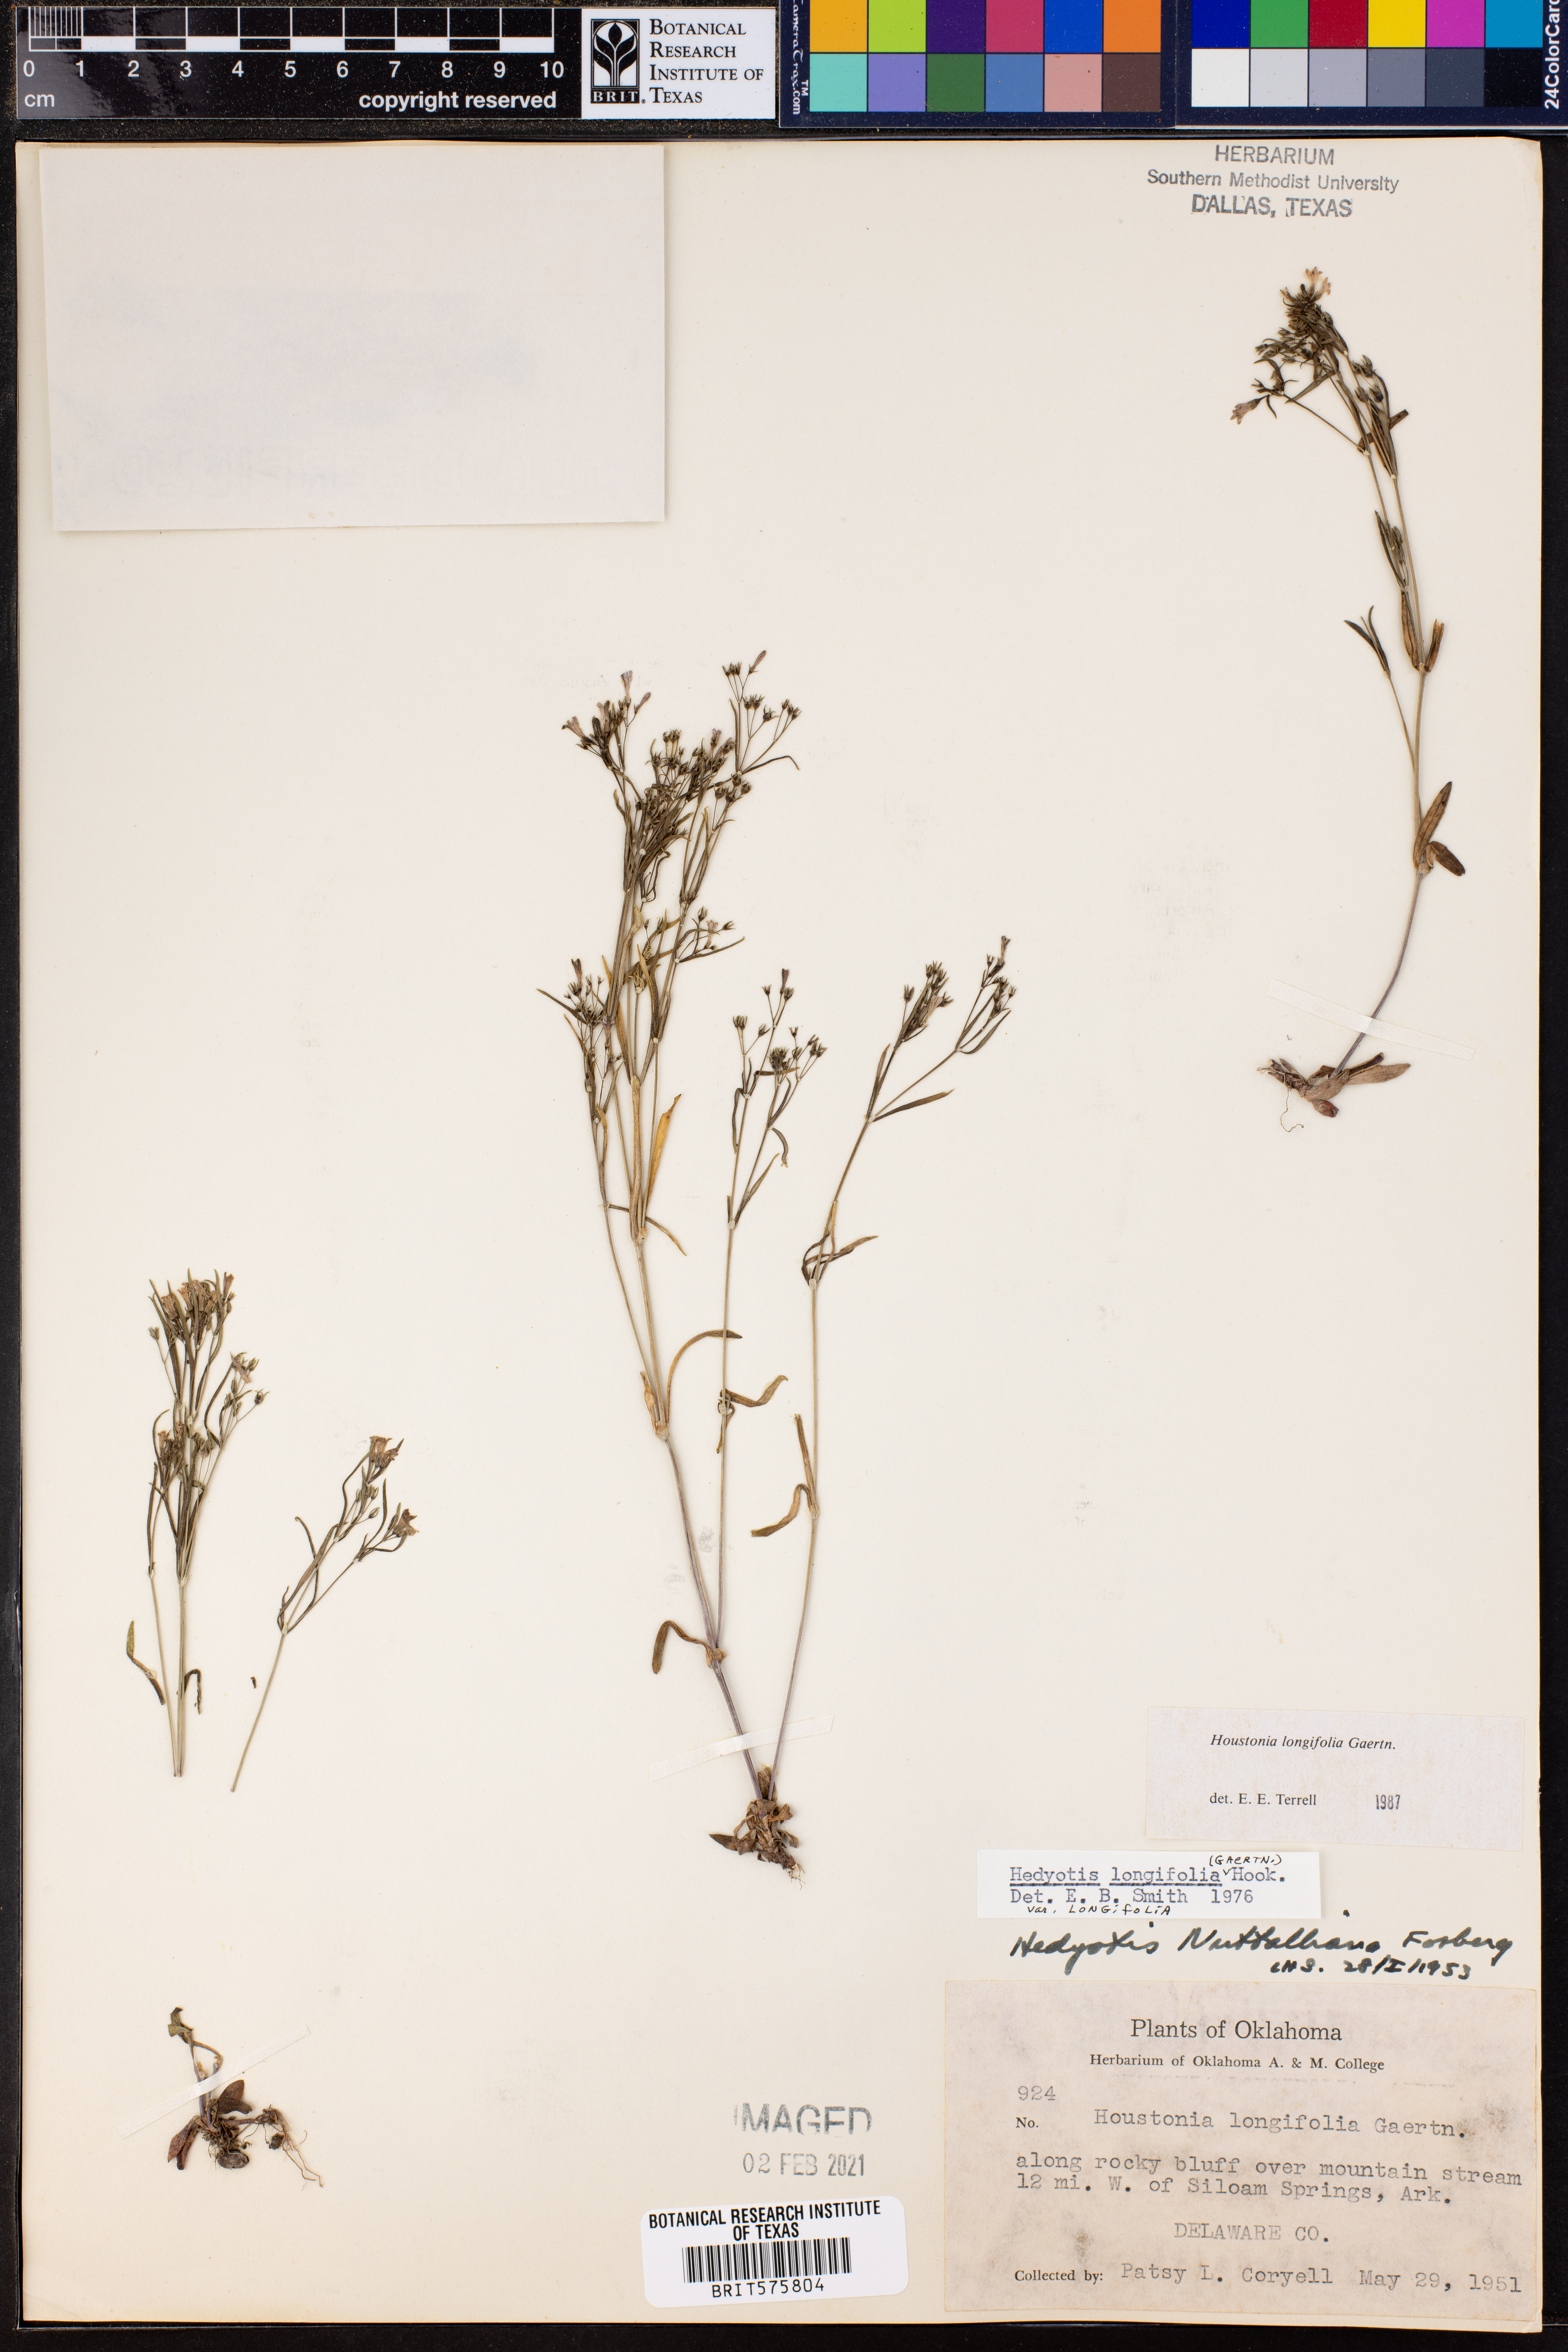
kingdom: Plantae
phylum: Tracheophyta
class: Magnoliopsida
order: Gentianales
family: Rubiaceae
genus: Houstonia
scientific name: Houstonia longifolia
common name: Long-leaved bluets
